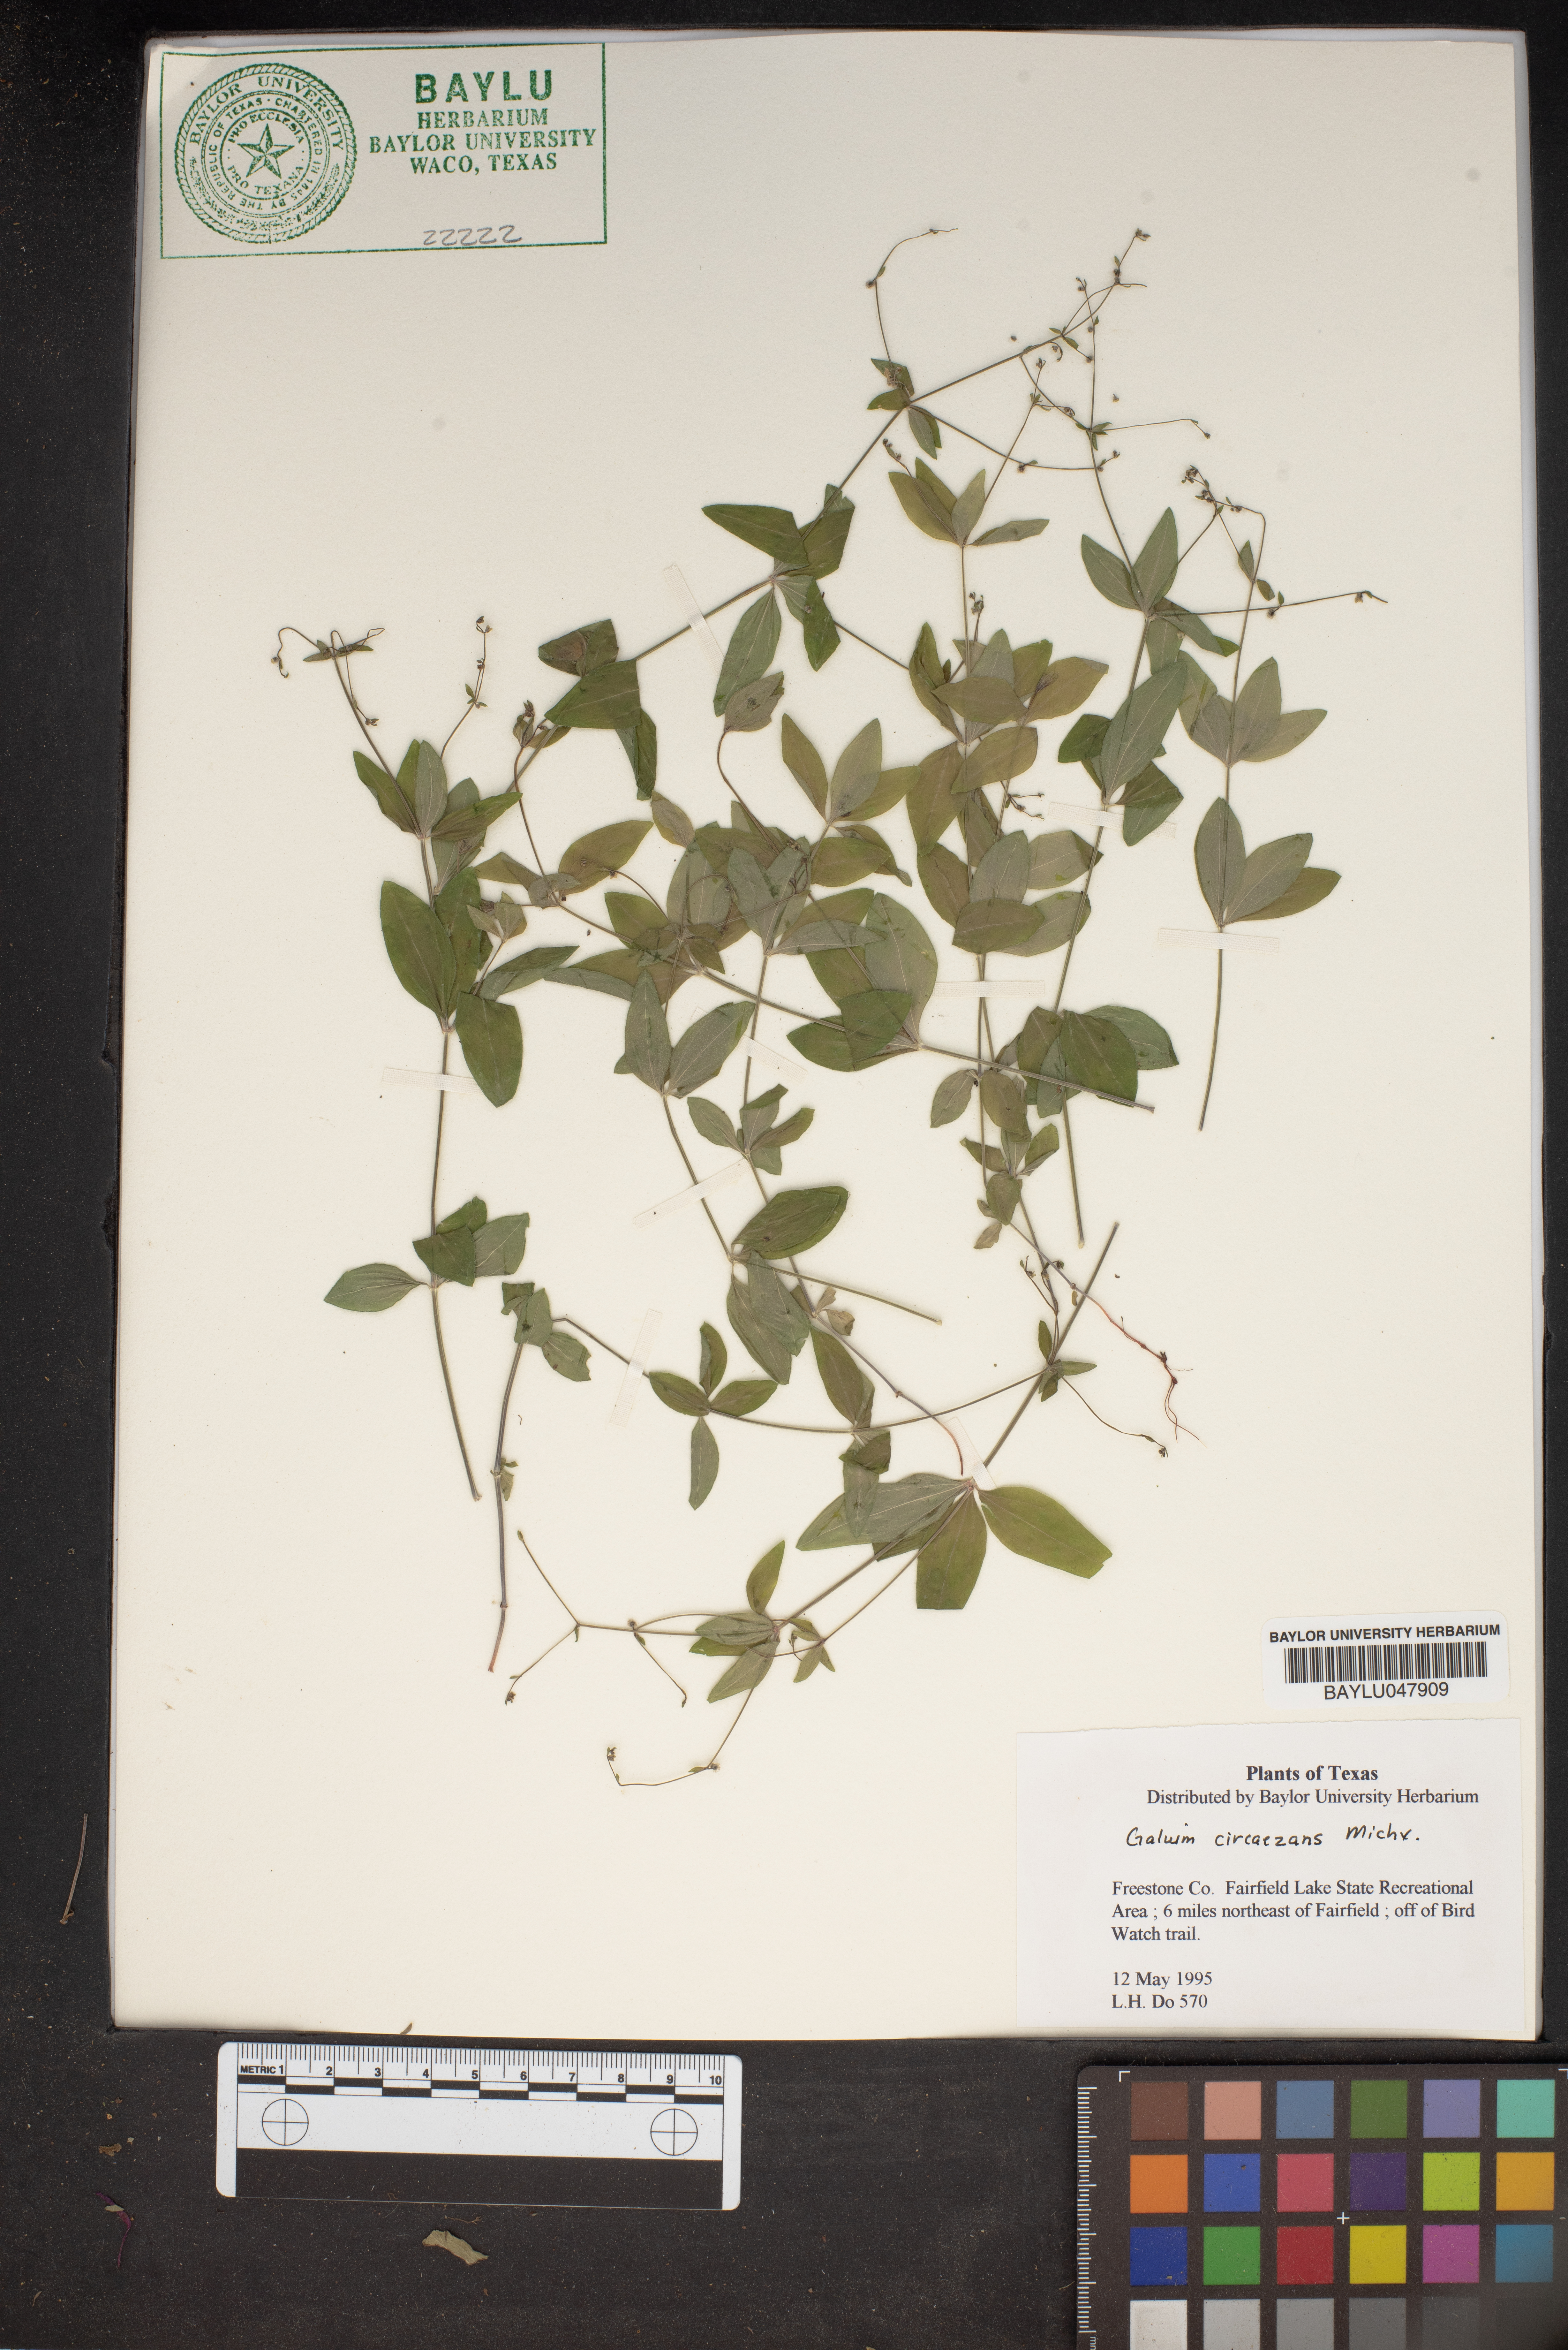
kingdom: Plantae
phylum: Tracheophyta
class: Magnoliopsida
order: Gentianales
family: Rubiaceae
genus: Galium
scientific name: Galium circaezans
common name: Forest bedstraw
